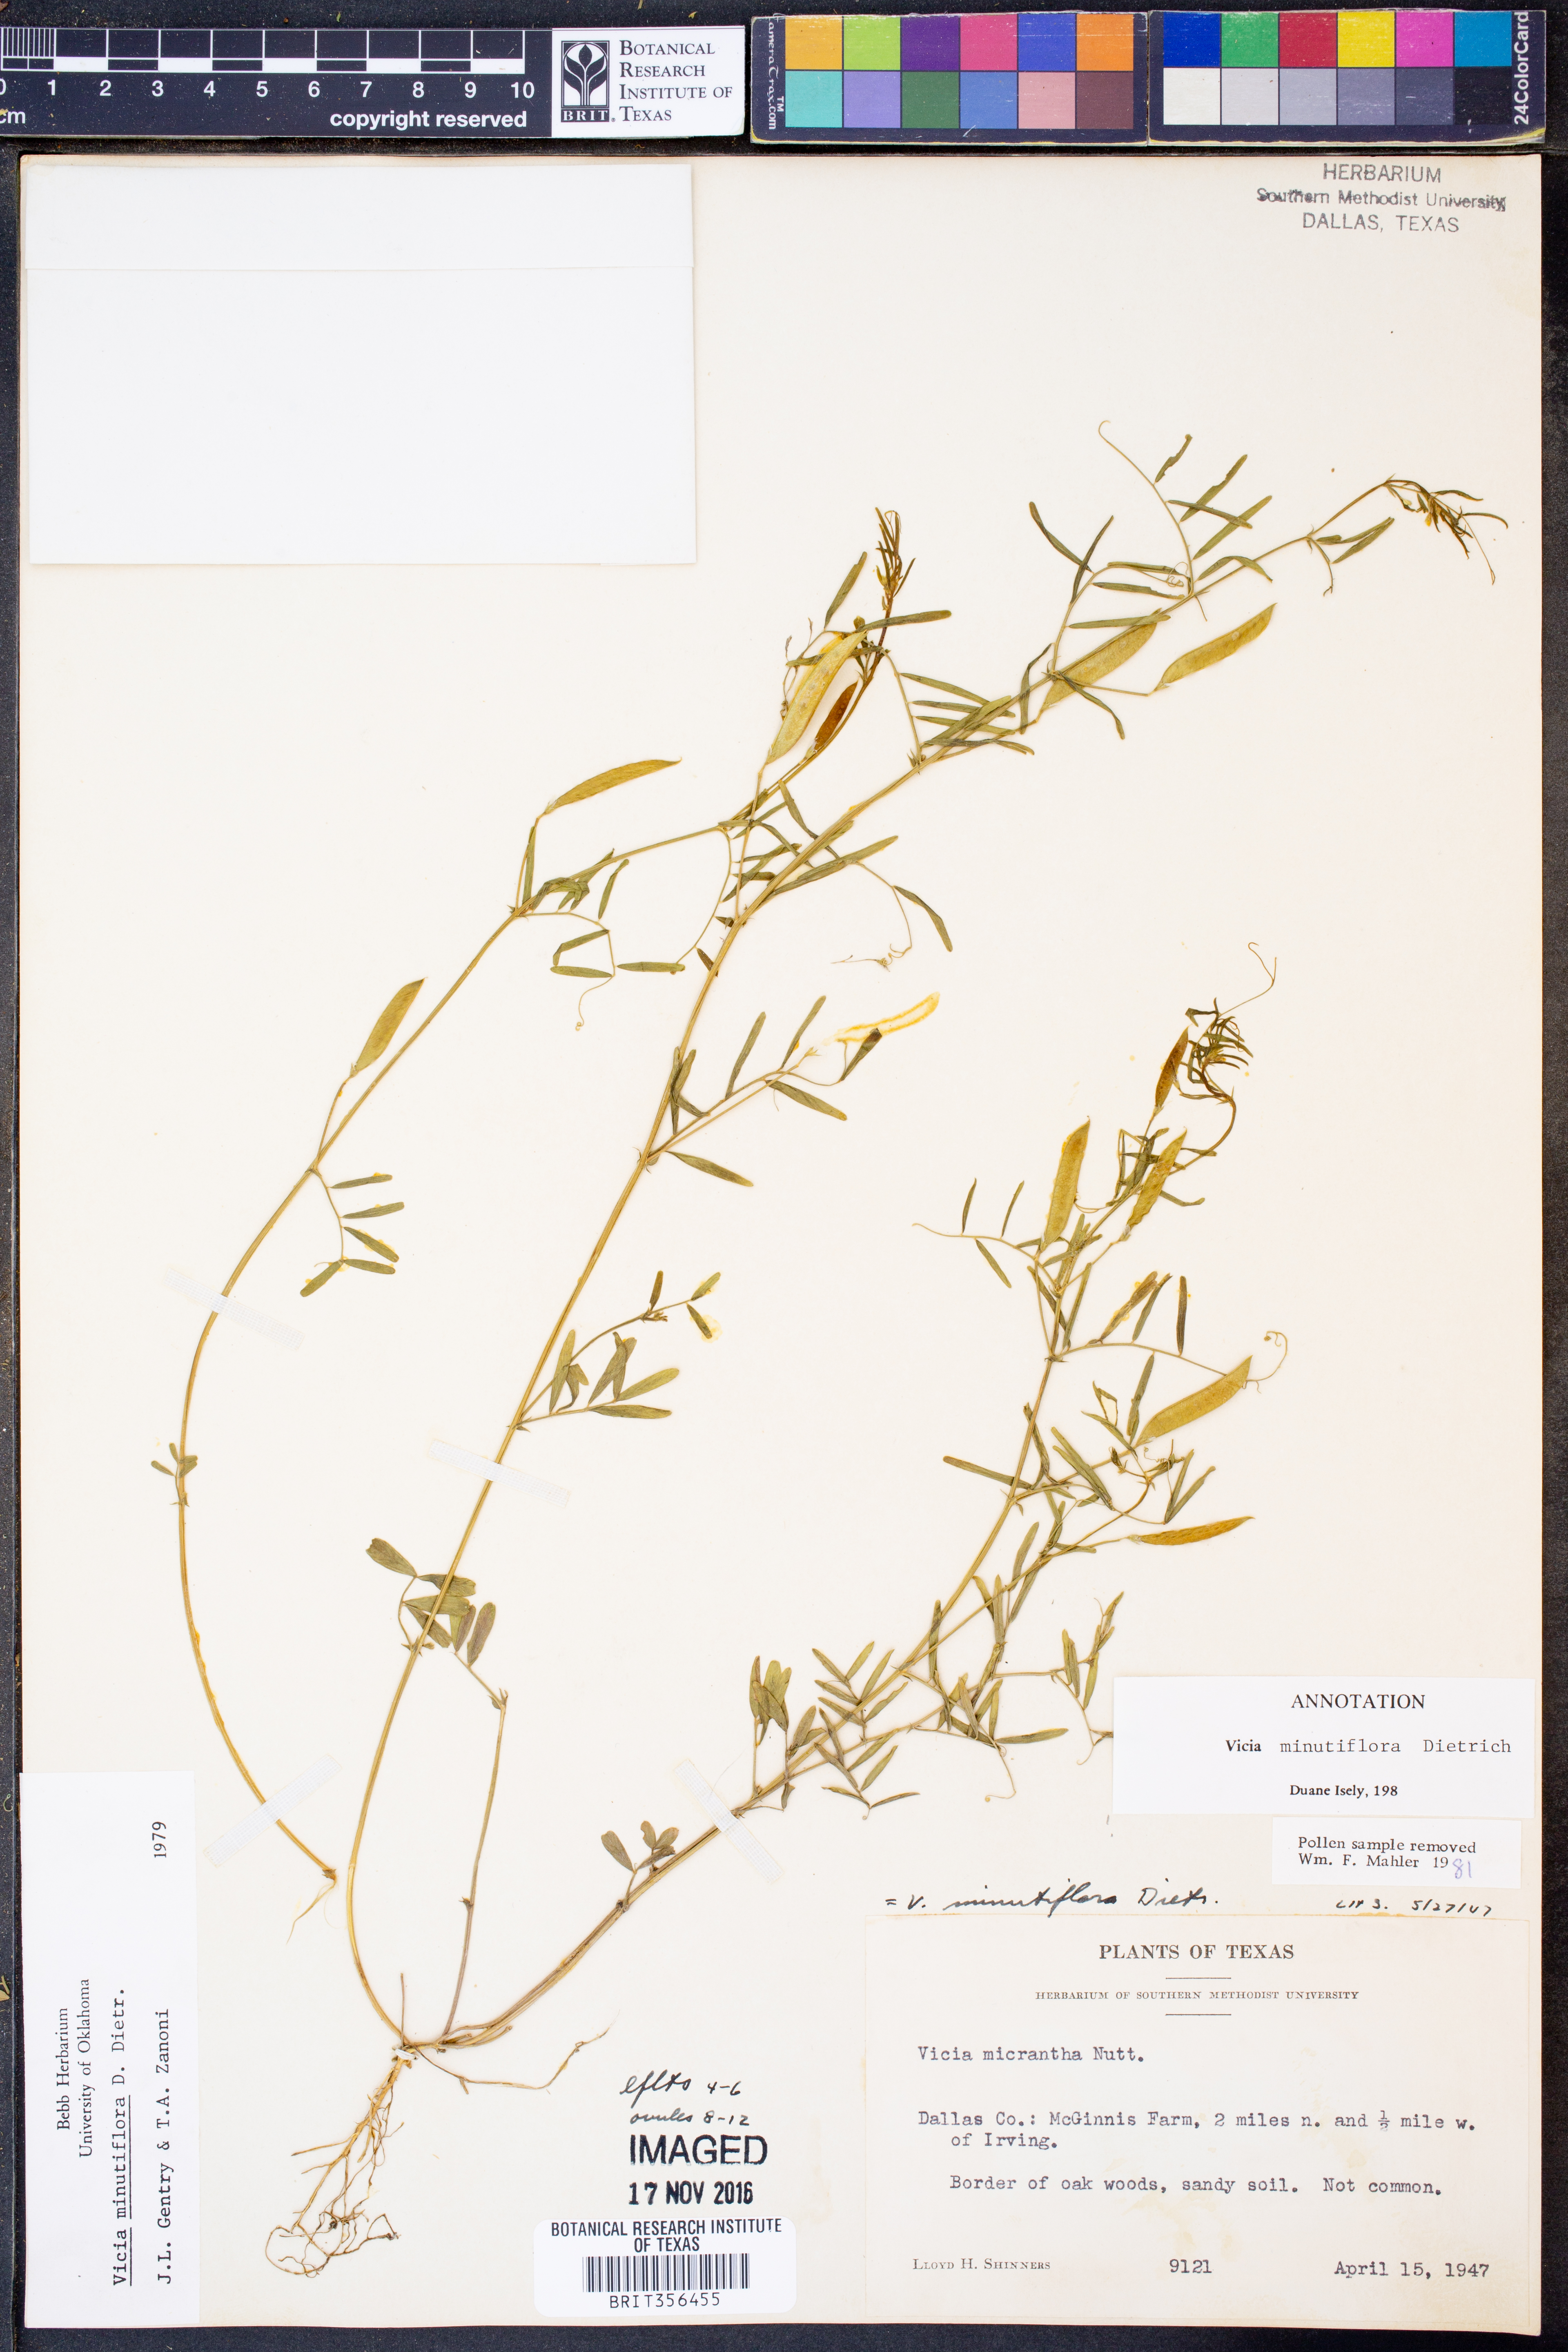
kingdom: Plantae
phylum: Tracheophyta
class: Magnoliopsida
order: Fabales
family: Fabaceae
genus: Vicia
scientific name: Vicia minutiflora
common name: Pygmy-flower vetch
